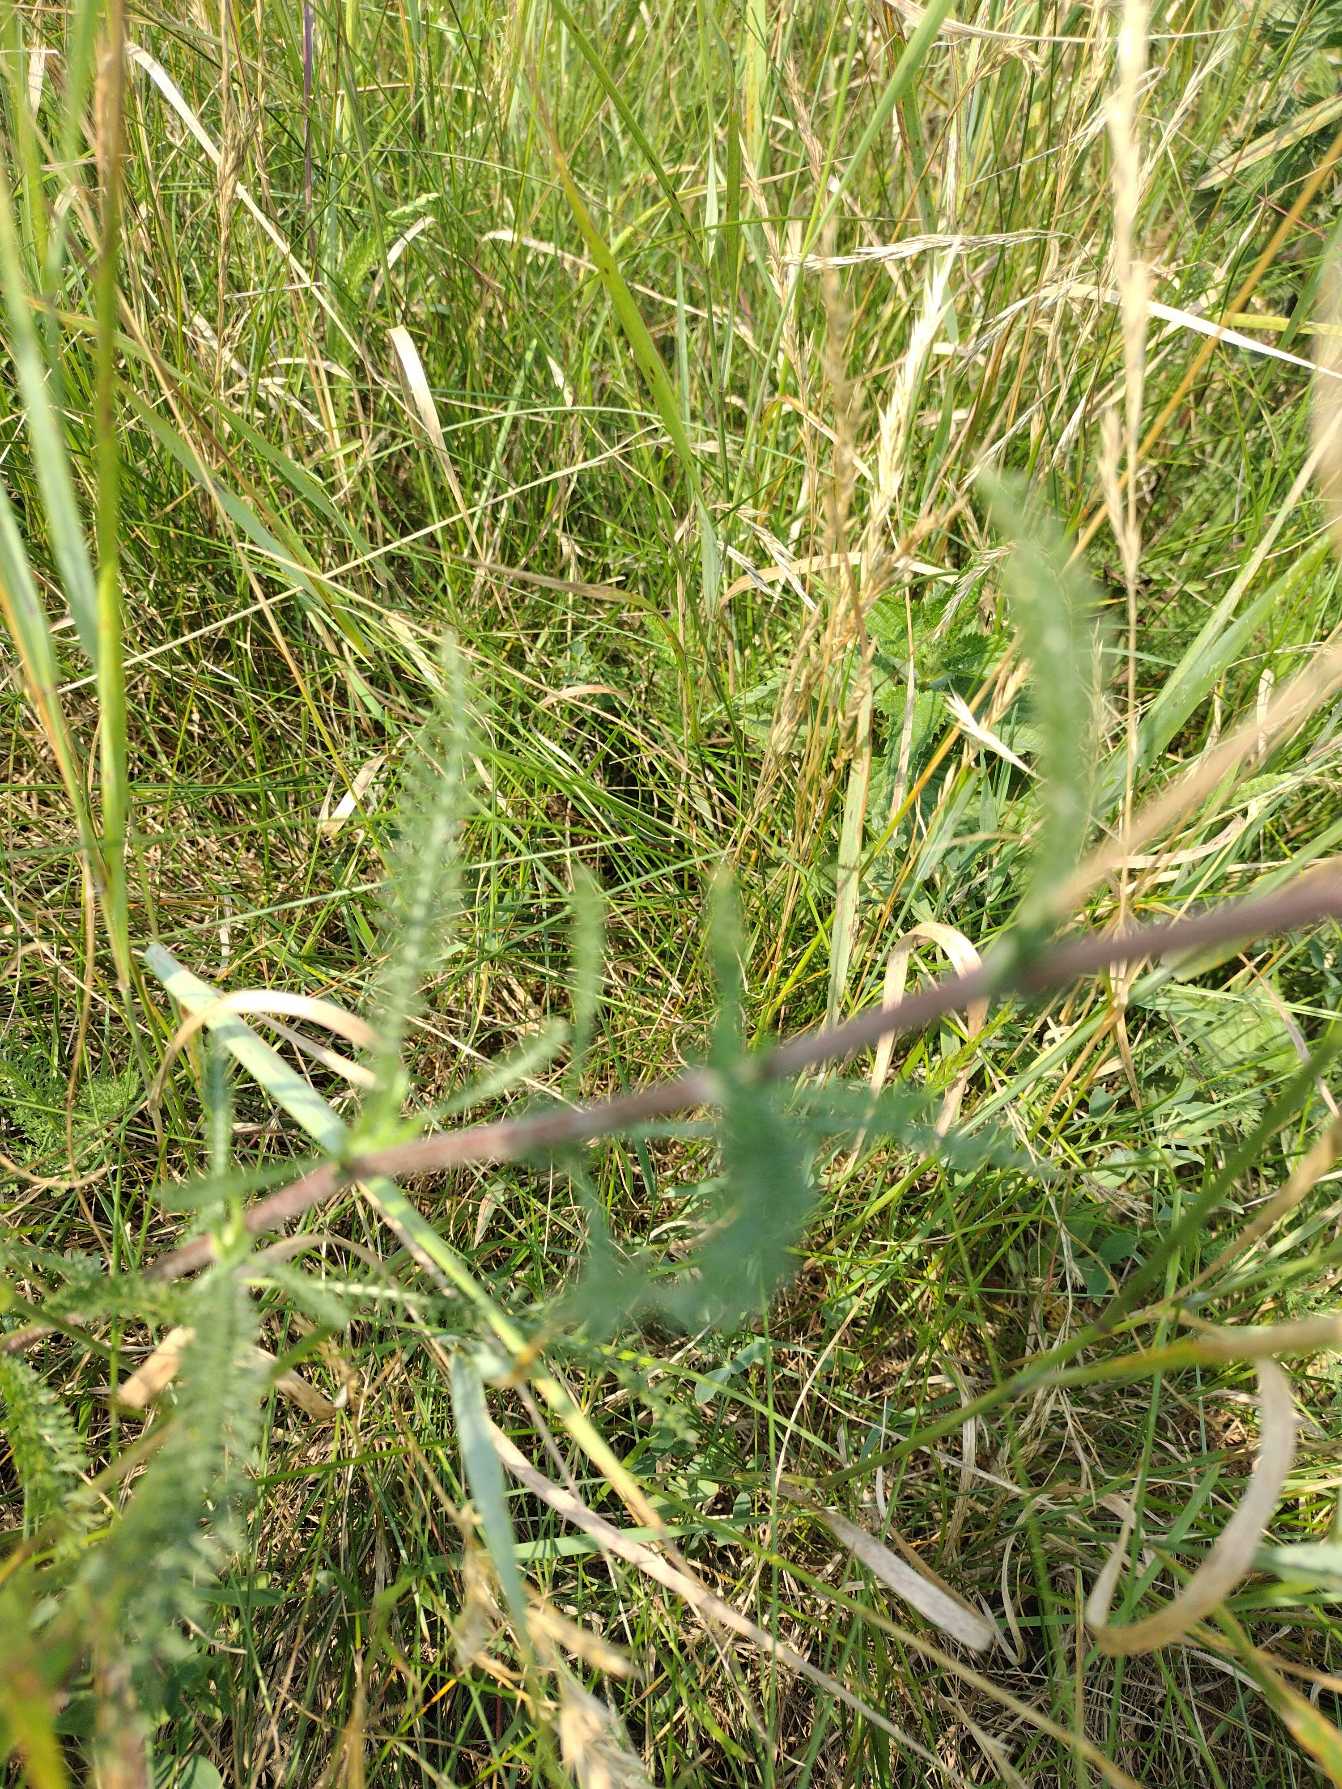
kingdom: Plantae
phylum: Tracheophyta
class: Magnoliopsida
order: Asterales
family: Asteraceae
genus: Achillea
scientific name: Achillea millefolium
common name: Almindelig røllike
